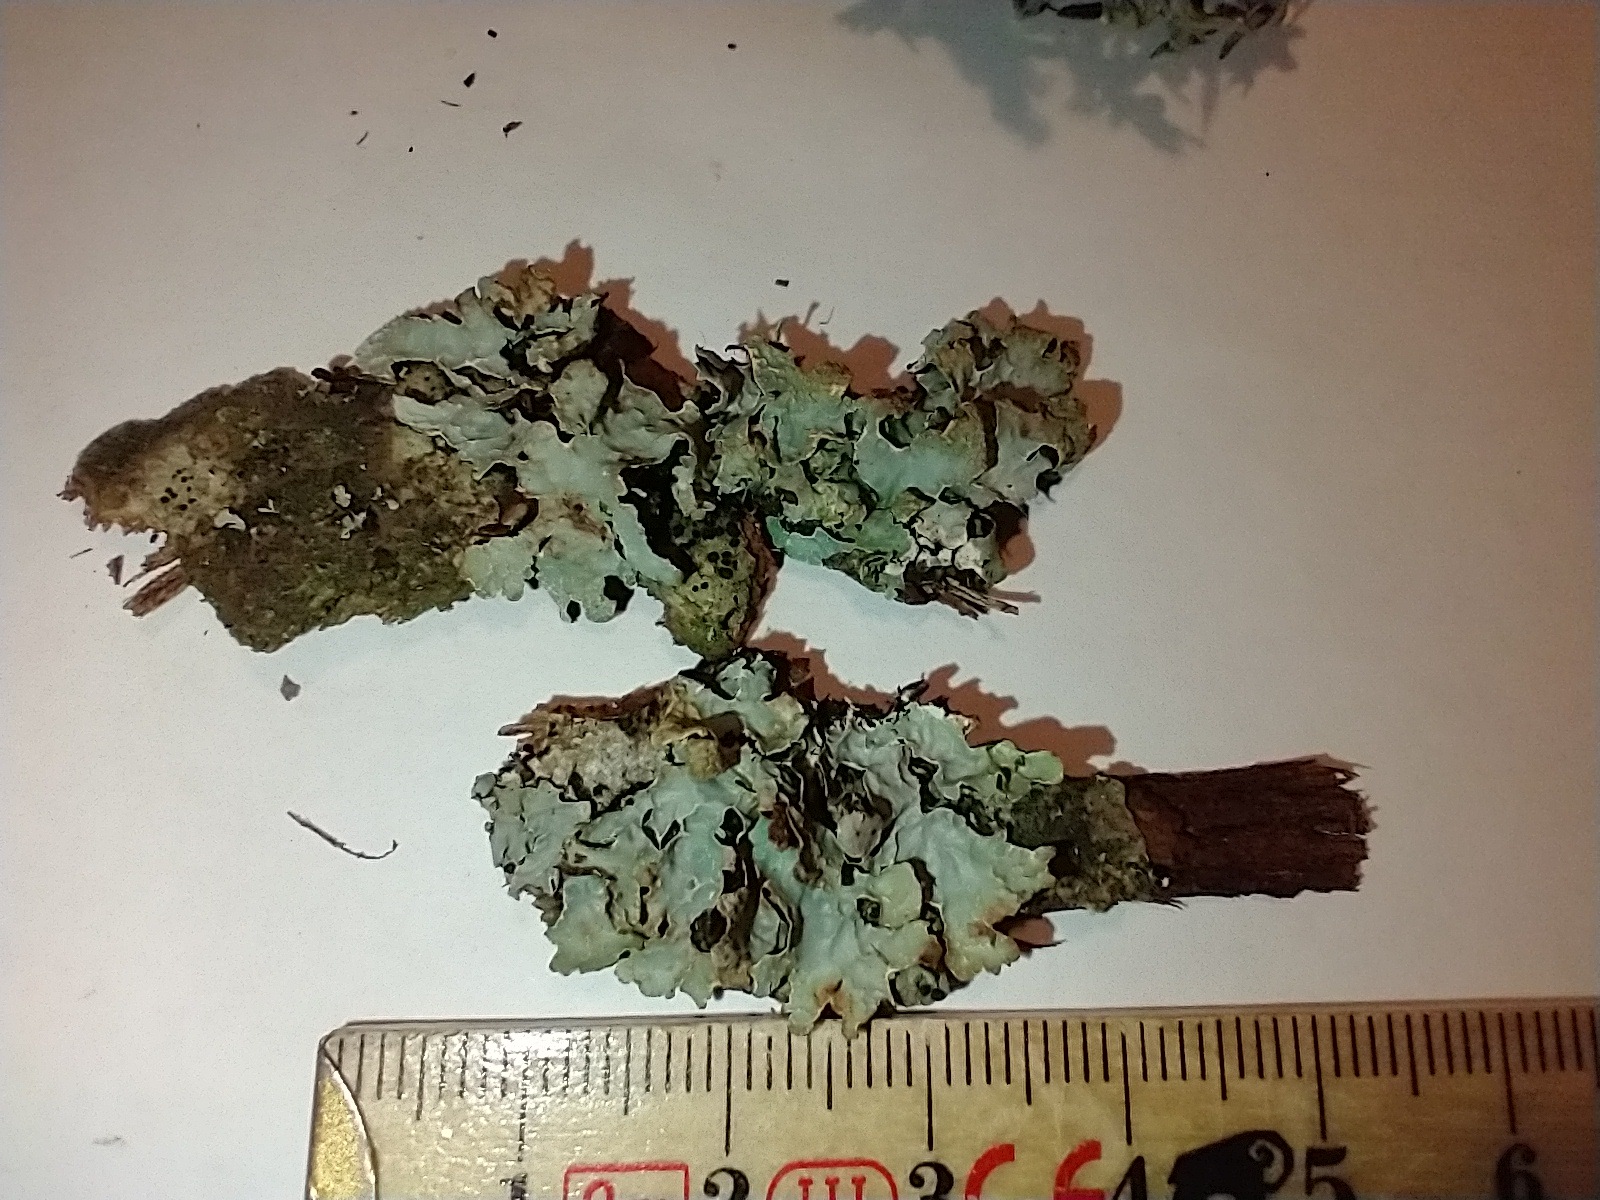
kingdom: Fungi
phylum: Ascomycota
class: Lecanoromycetes
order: Lecanorales
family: Parmeliaceae
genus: Parmelia
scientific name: Parmelia sulcata
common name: rynket skållav
